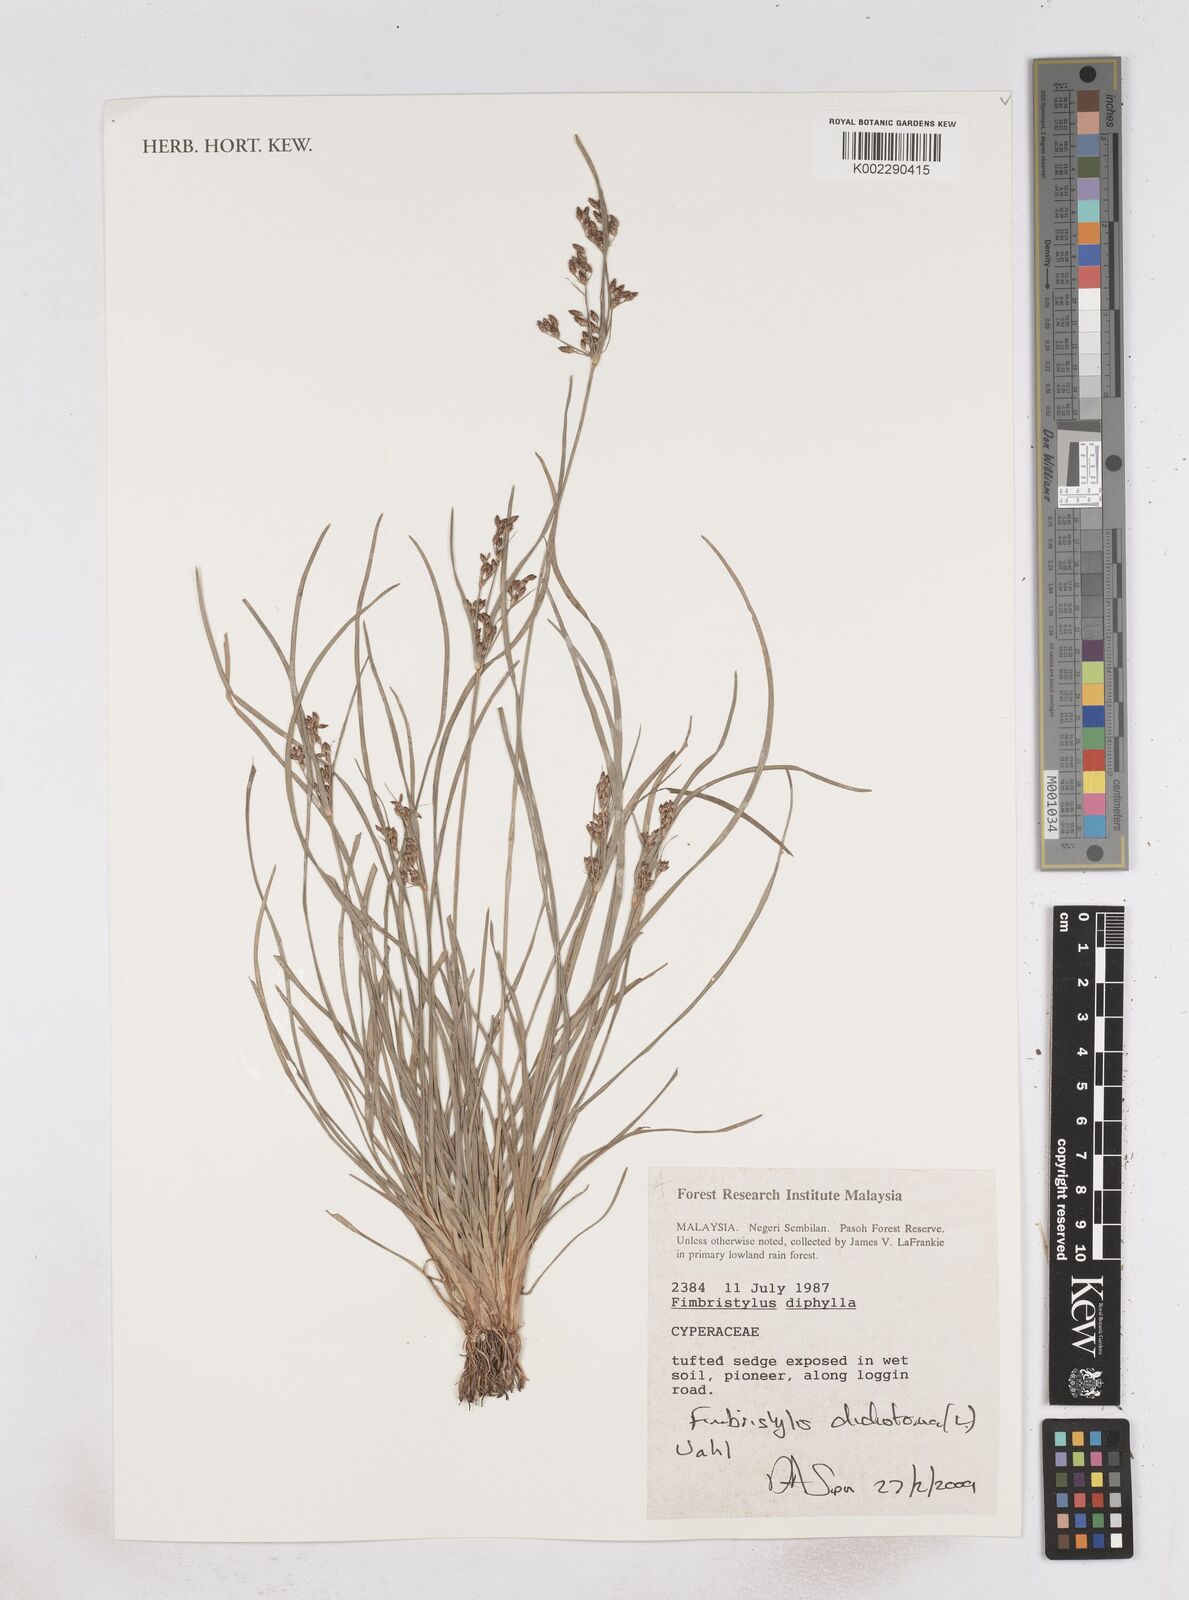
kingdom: Plantae
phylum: Tracheophyta
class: Liliopsida
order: Poales
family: Cyperaceae
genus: Fimbristylis
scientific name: Fimbristylis dichotoma
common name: Forked fimbry
